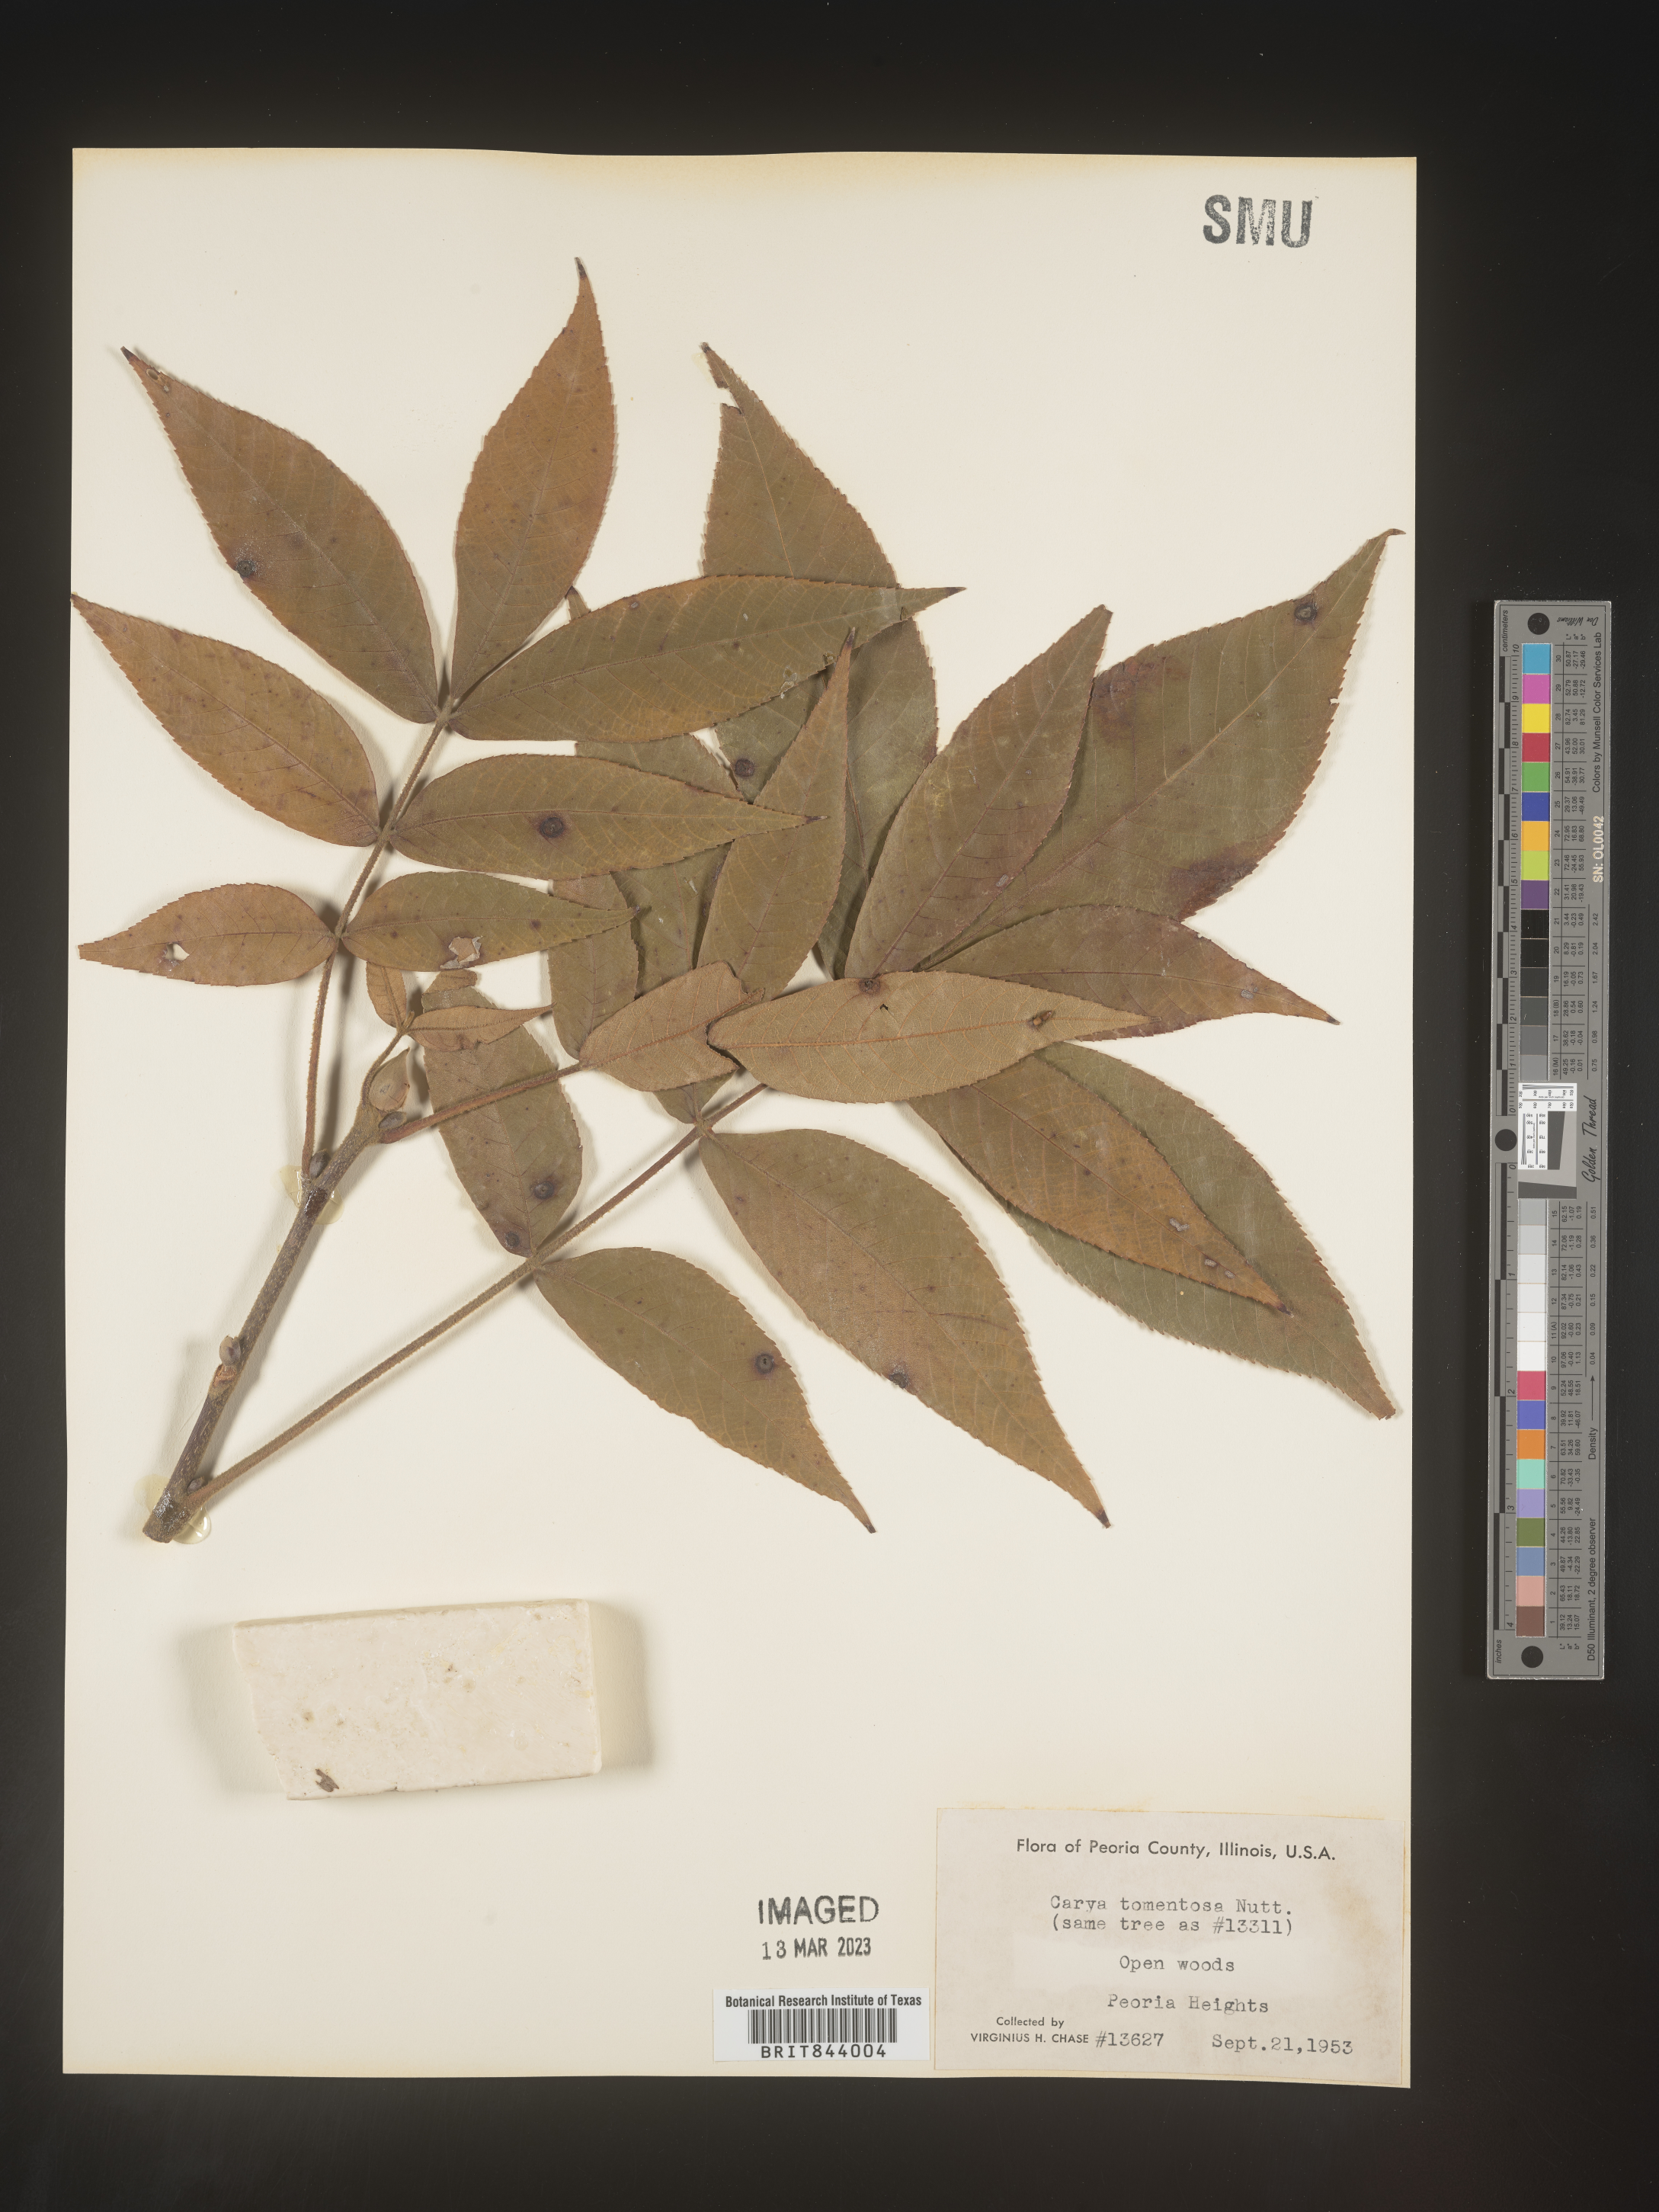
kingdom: Plantae
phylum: Tracheophyta
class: Magnoliopsida
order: Fagales
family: Juglandaceae
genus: Carya
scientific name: Carya alba
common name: Mockernut hickory
